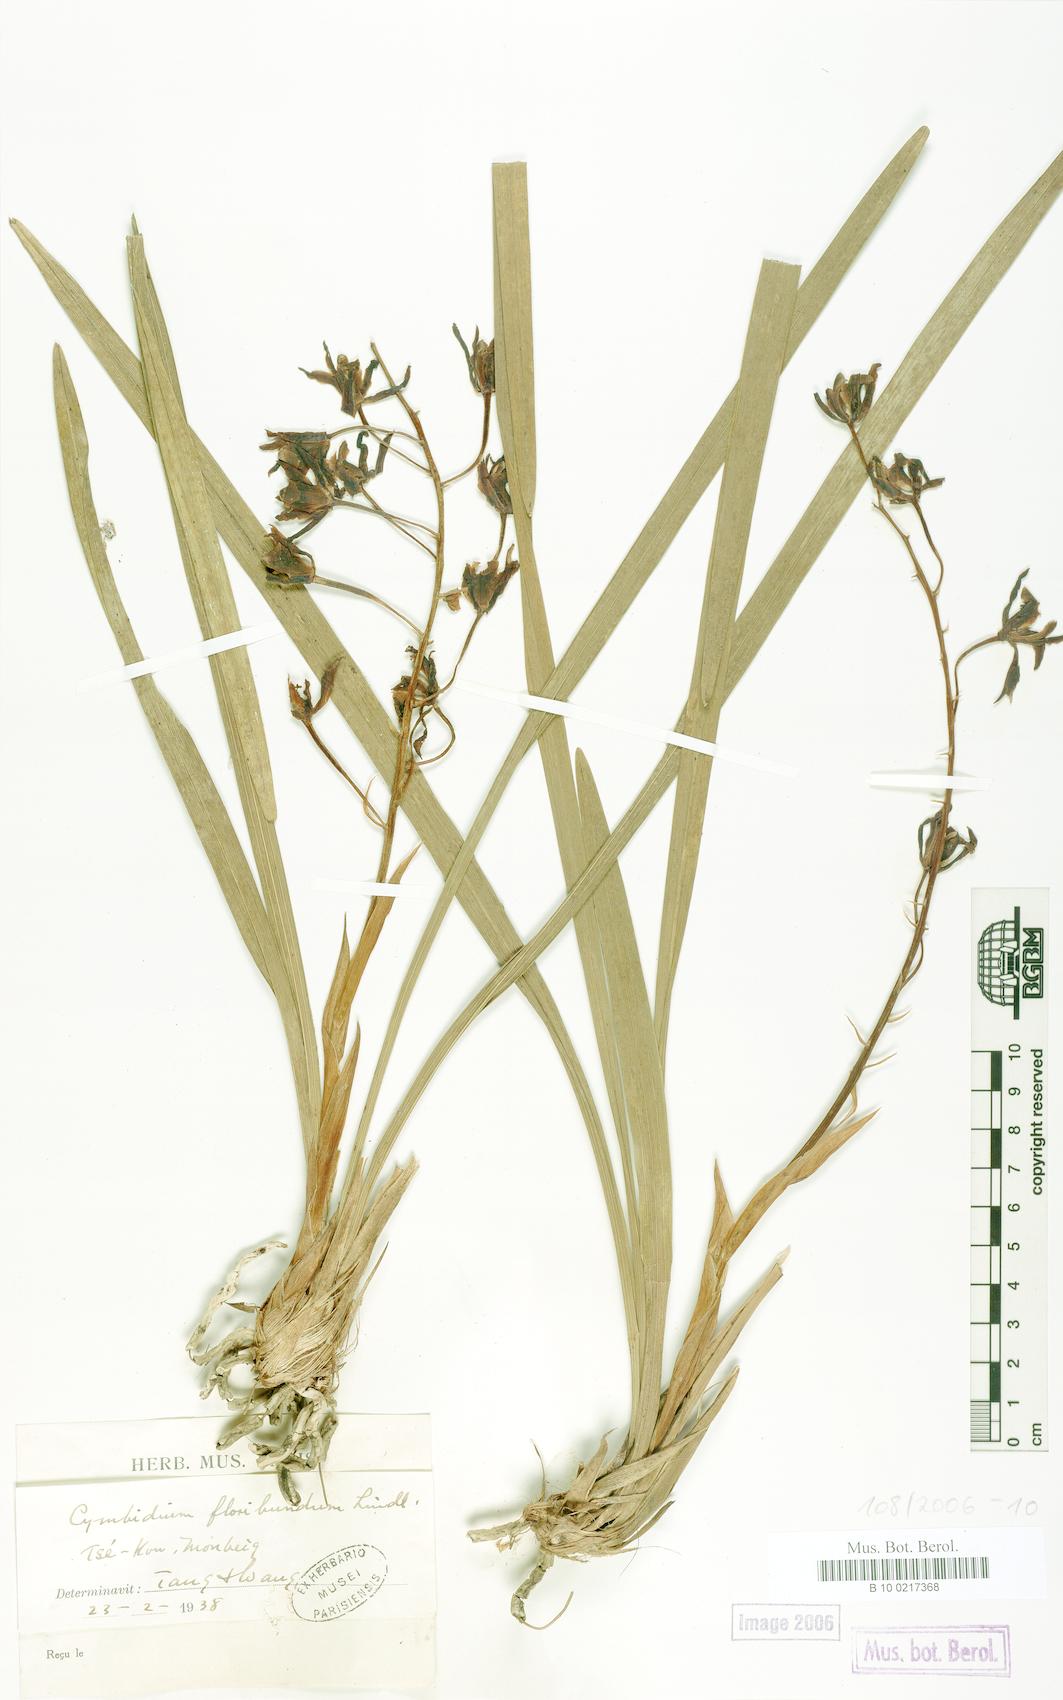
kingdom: Plantae
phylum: Tracheophyta
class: Liliopsida
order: Asparagales
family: Orchidaceae
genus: Cymbidium
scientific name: Cymbidium floribundum
